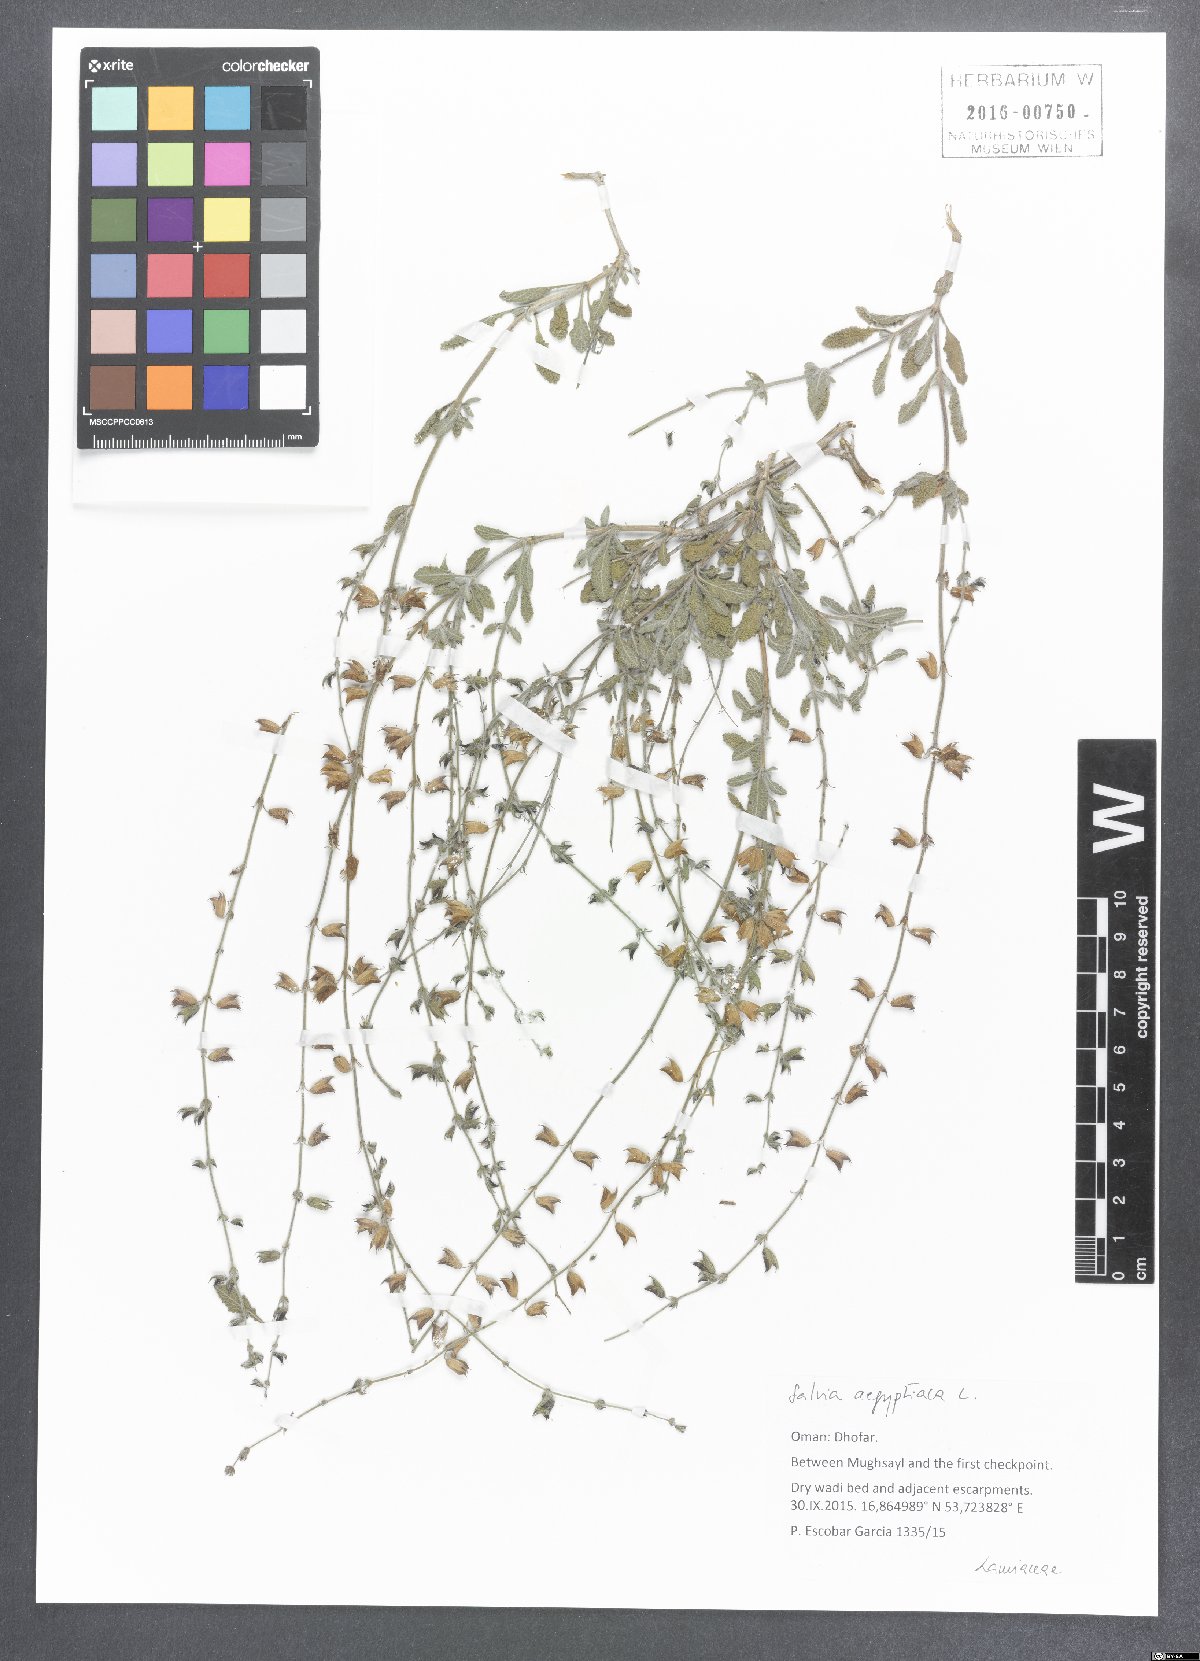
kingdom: Plantae
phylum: Tracheophyta
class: Magnoliopsida
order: Lamiales
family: Lamiaceae
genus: Salvia
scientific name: Salvia aegyptiaca
